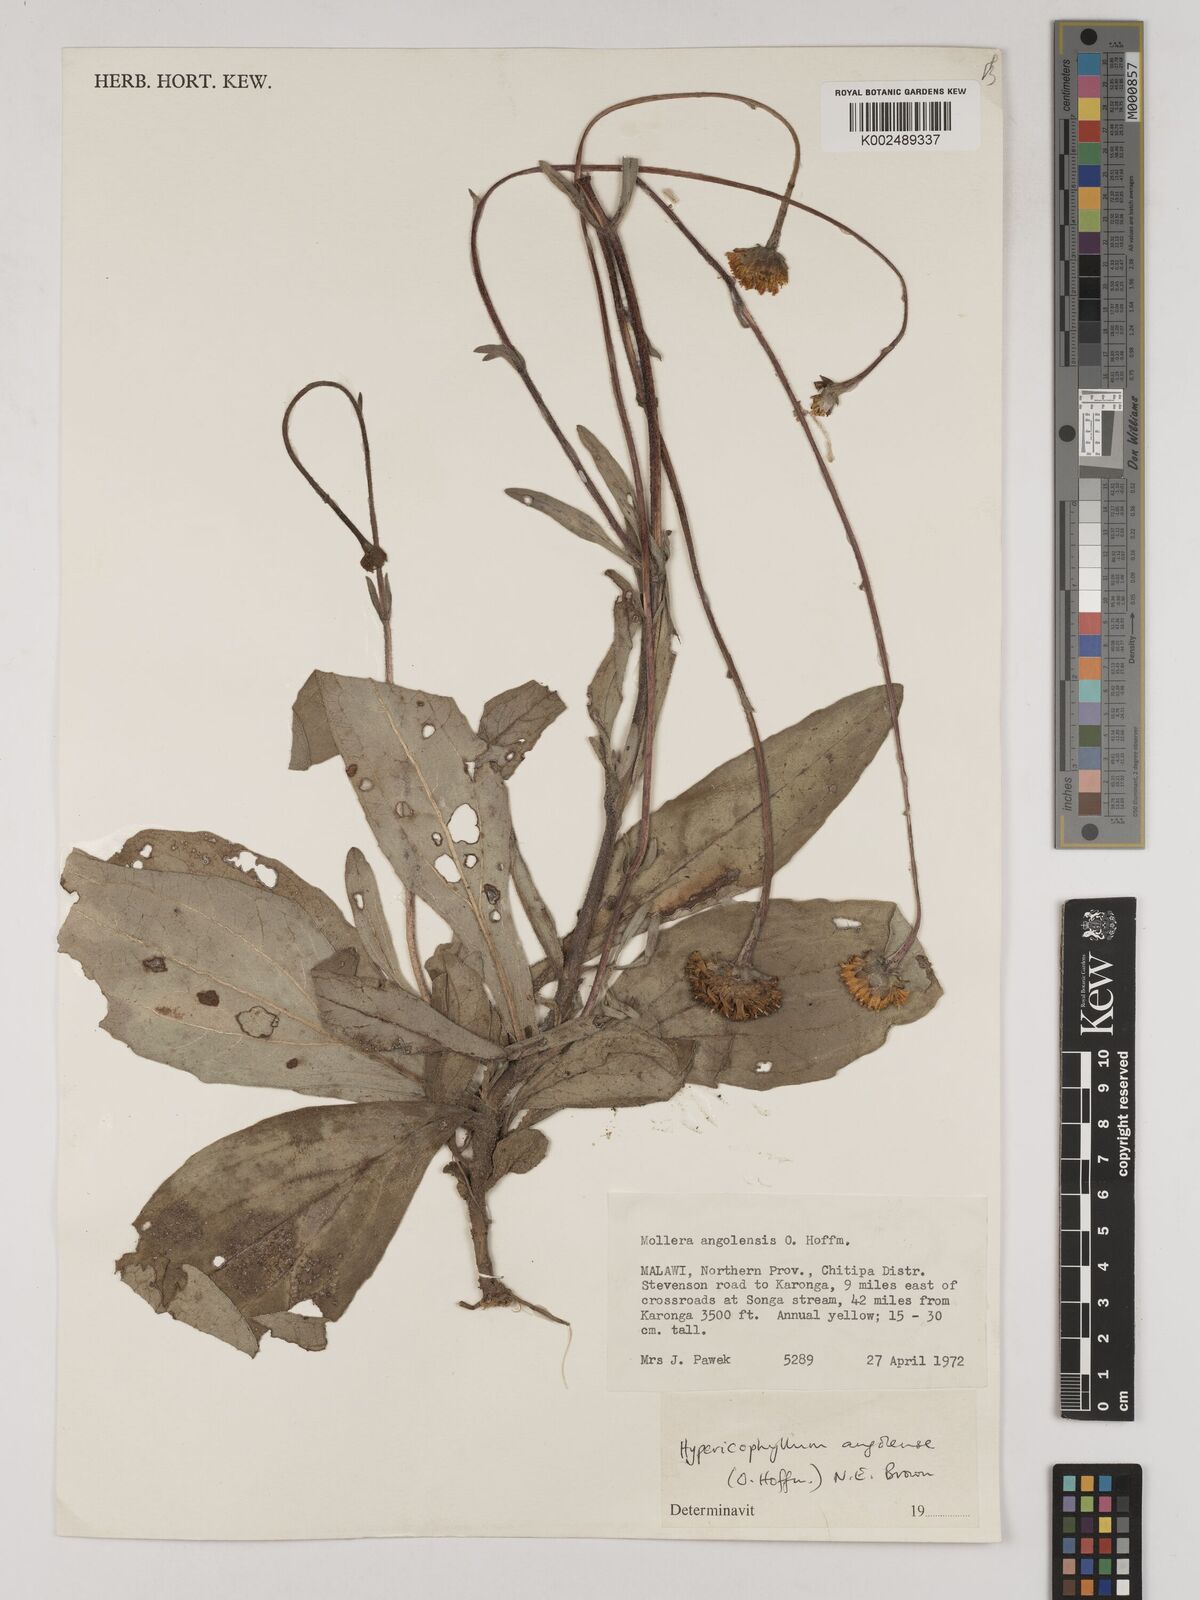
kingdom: Plantae
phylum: Tracheophyta
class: Magnoliopsida
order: Asterales
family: Asteraceae
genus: Hypericophyllum
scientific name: Hypericophyllum angolense
